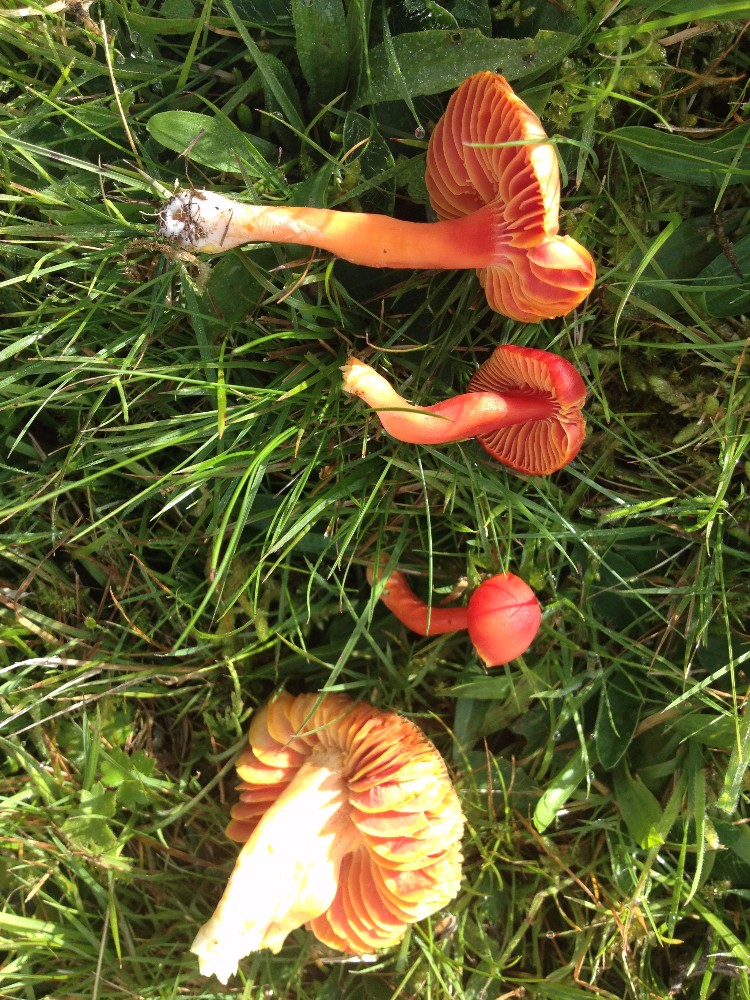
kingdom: Fungi
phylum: Basidiomycota
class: Agaricomycetes
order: Agaricales
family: Hygrophoraceae
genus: Hygrocybe
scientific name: Hygrocybe coccinea
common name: cinnober-vokshat
